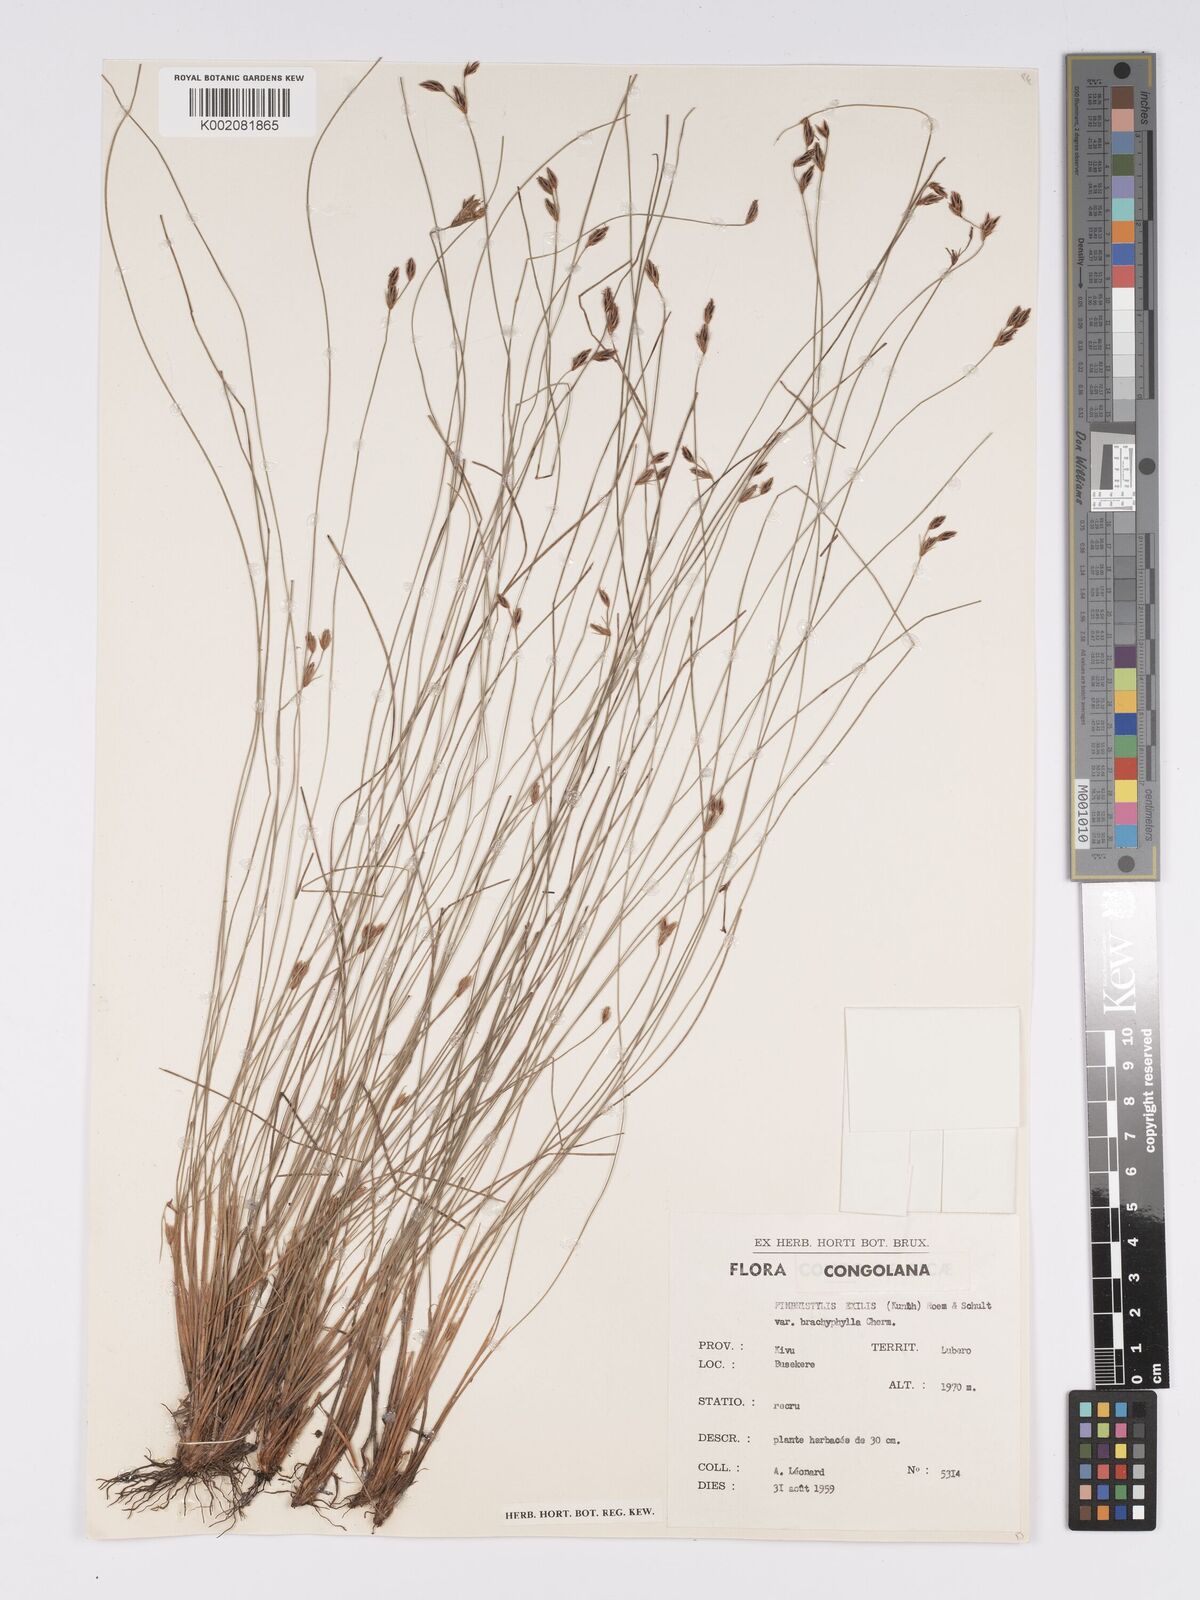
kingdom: Plantae
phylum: Tracheophyta
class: Liliopsida
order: Poales
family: Cyperaceae
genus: Bulbostylis
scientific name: Bulbostylis hispidula
